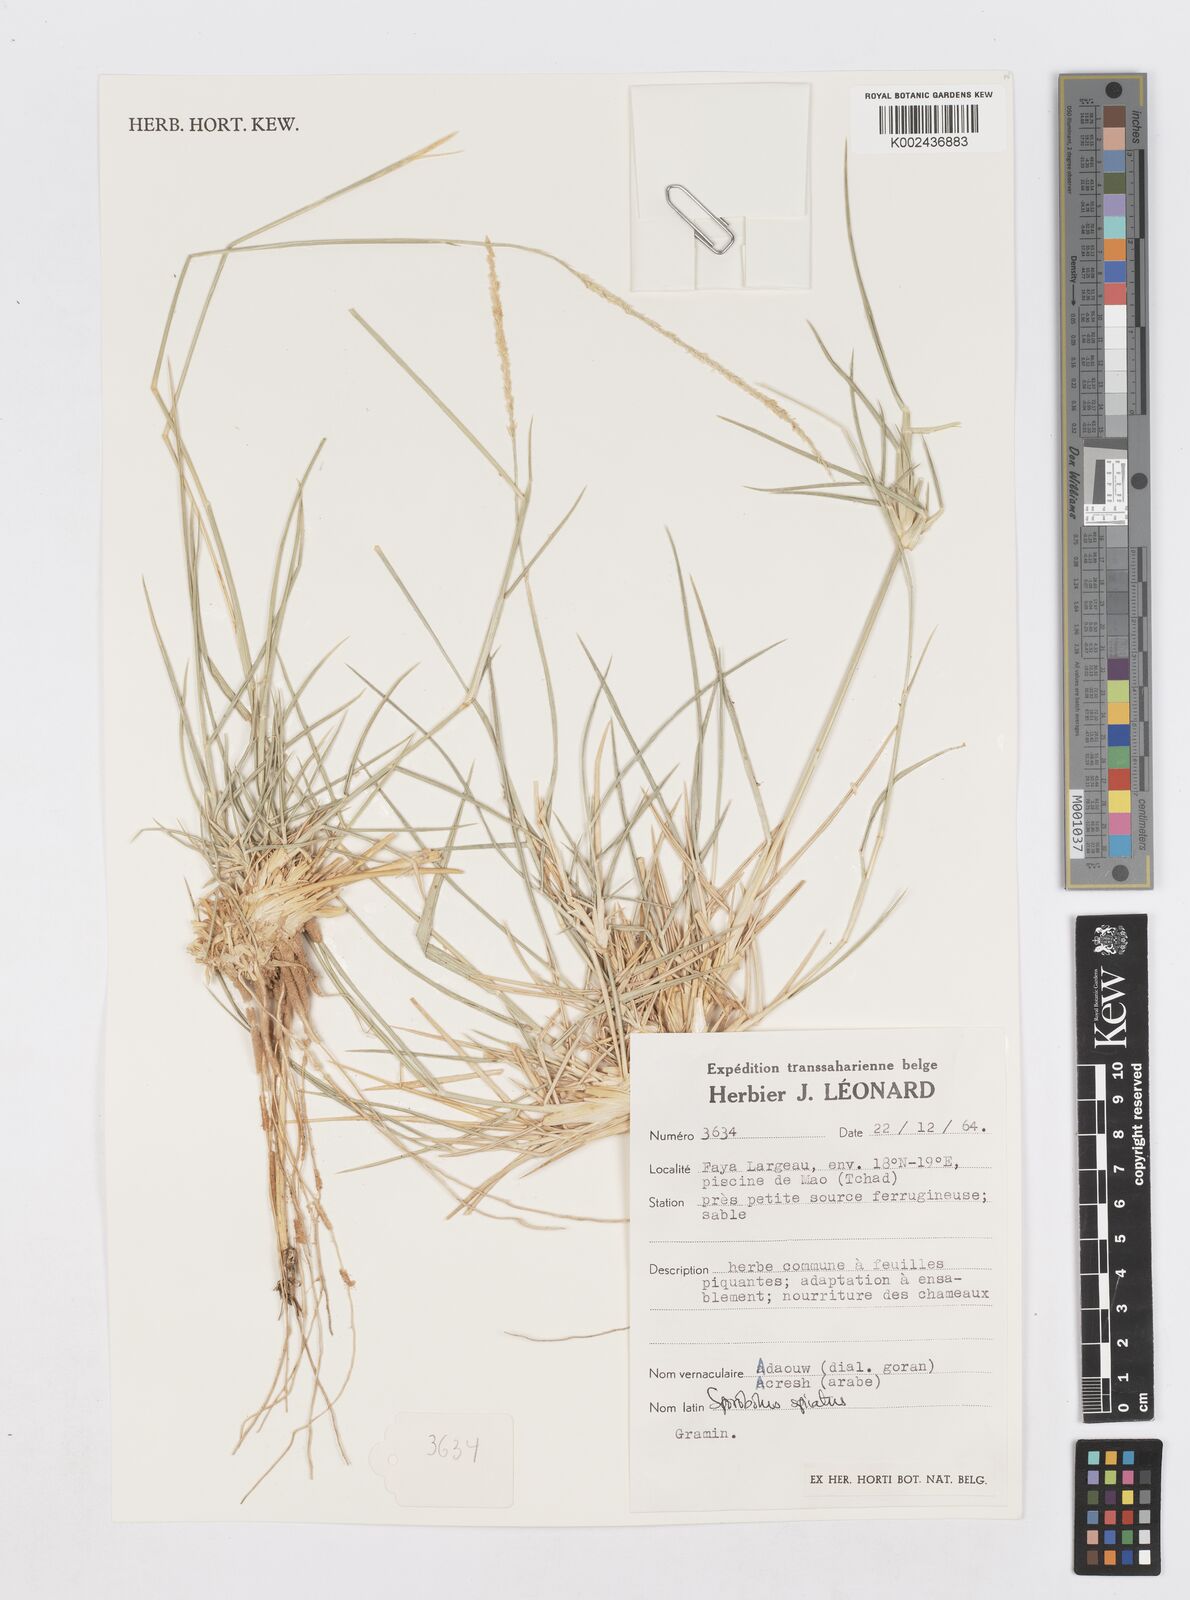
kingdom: Plantae
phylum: Tracheophyta
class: Liliopsida
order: Poales
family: Poaceae
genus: Sporobolus
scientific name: Sporobolus spicatus
